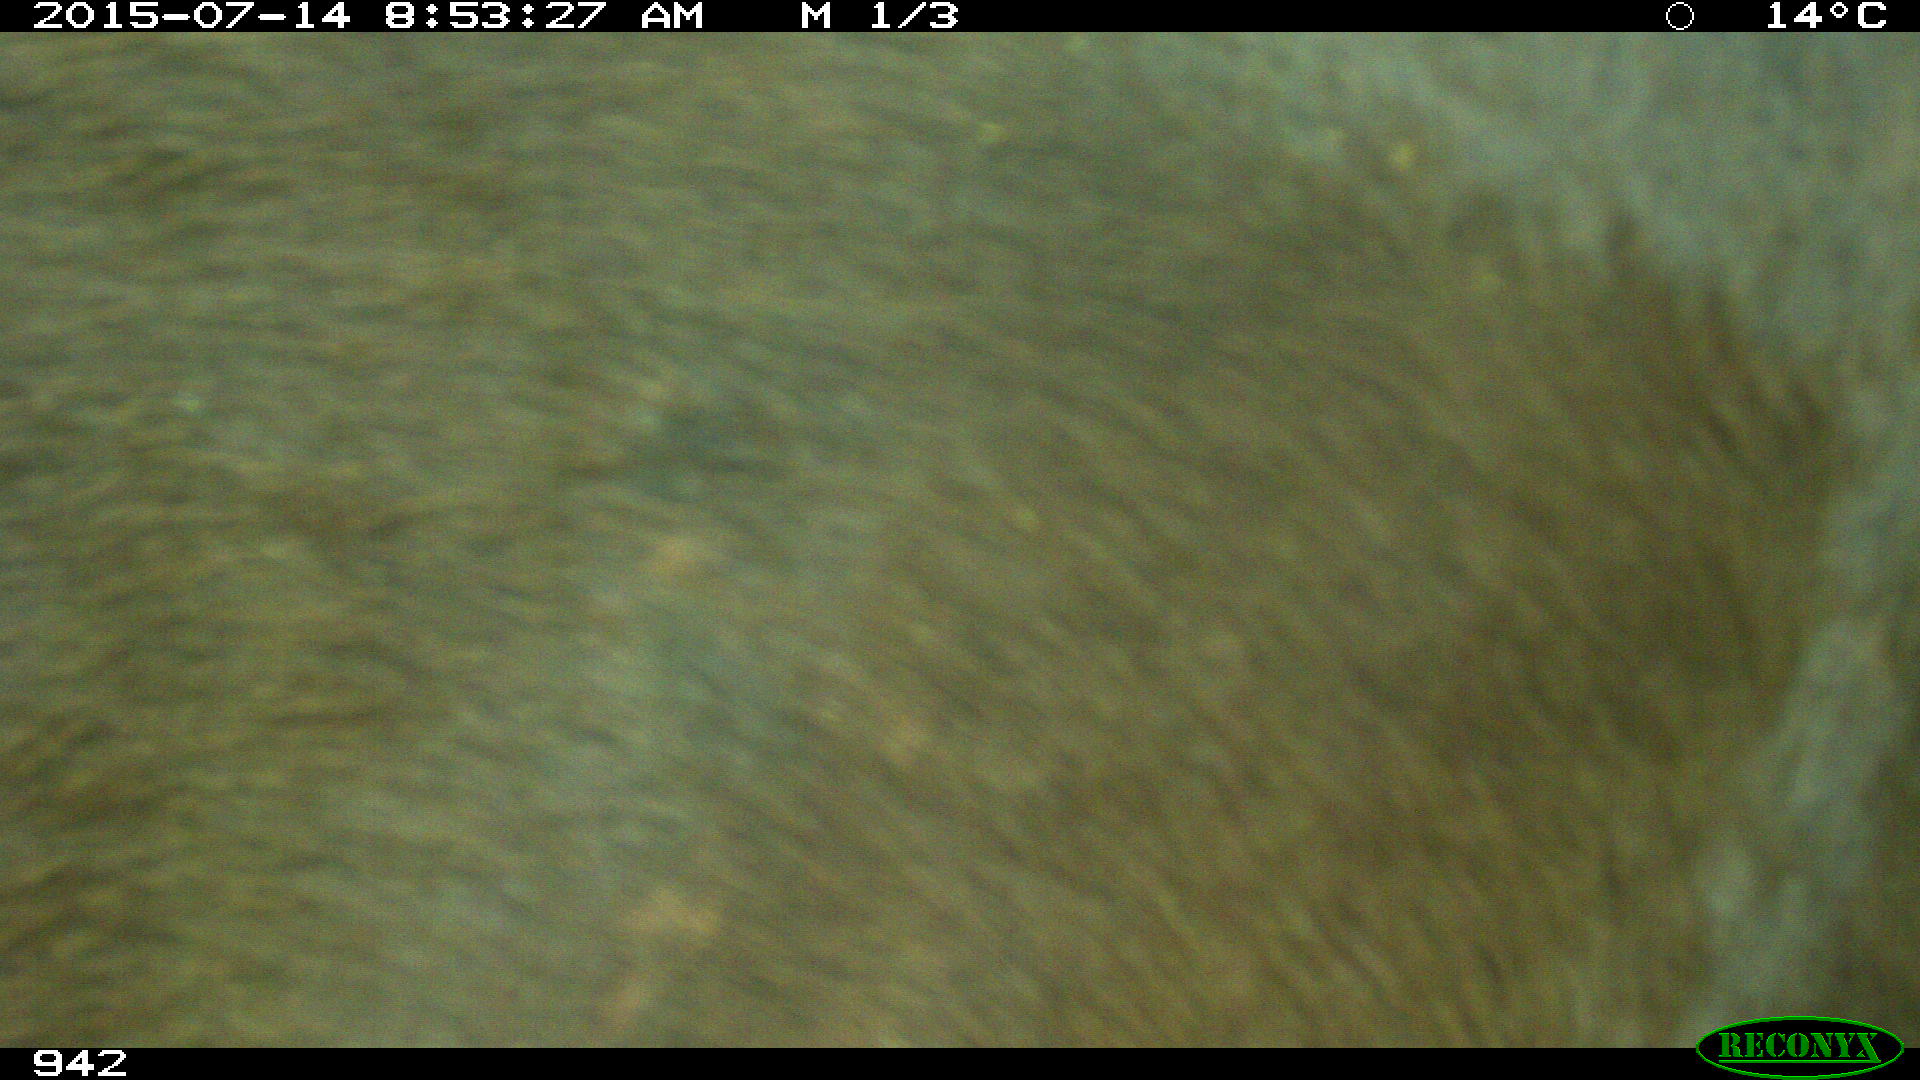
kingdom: Animalia
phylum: Chordata
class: Mammalia
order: Artiodactyla
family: Bovidae
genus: Bos
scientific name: Bos taurus
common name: Domesticated cattle
